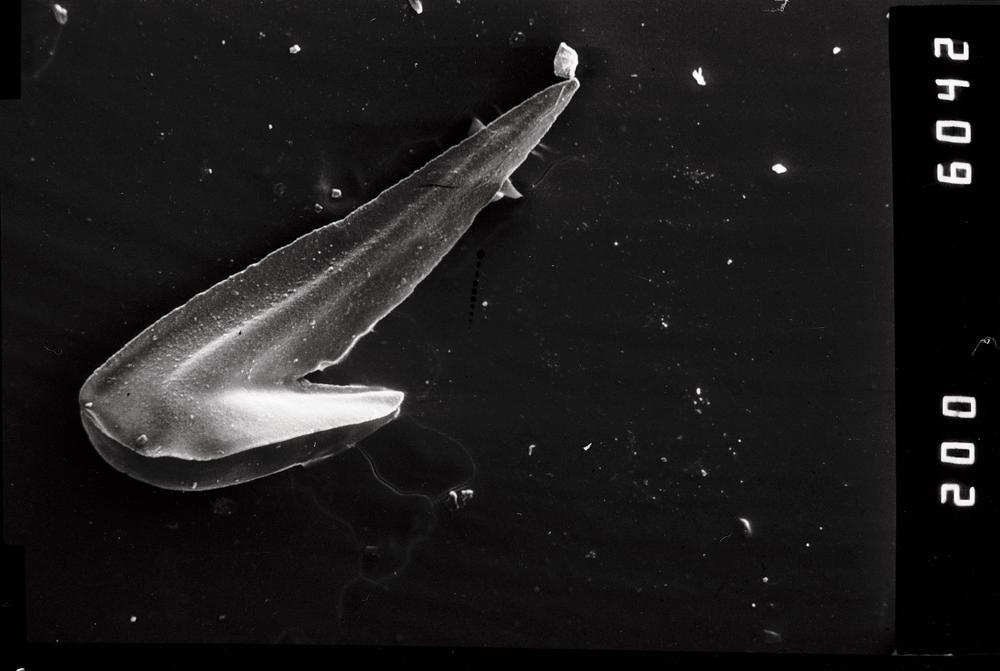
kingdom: Animalia
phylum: Chordata
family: Drepanoistodontidae
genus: Drepanoistodus
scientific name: Drepanoistodus Oistodus forceps
